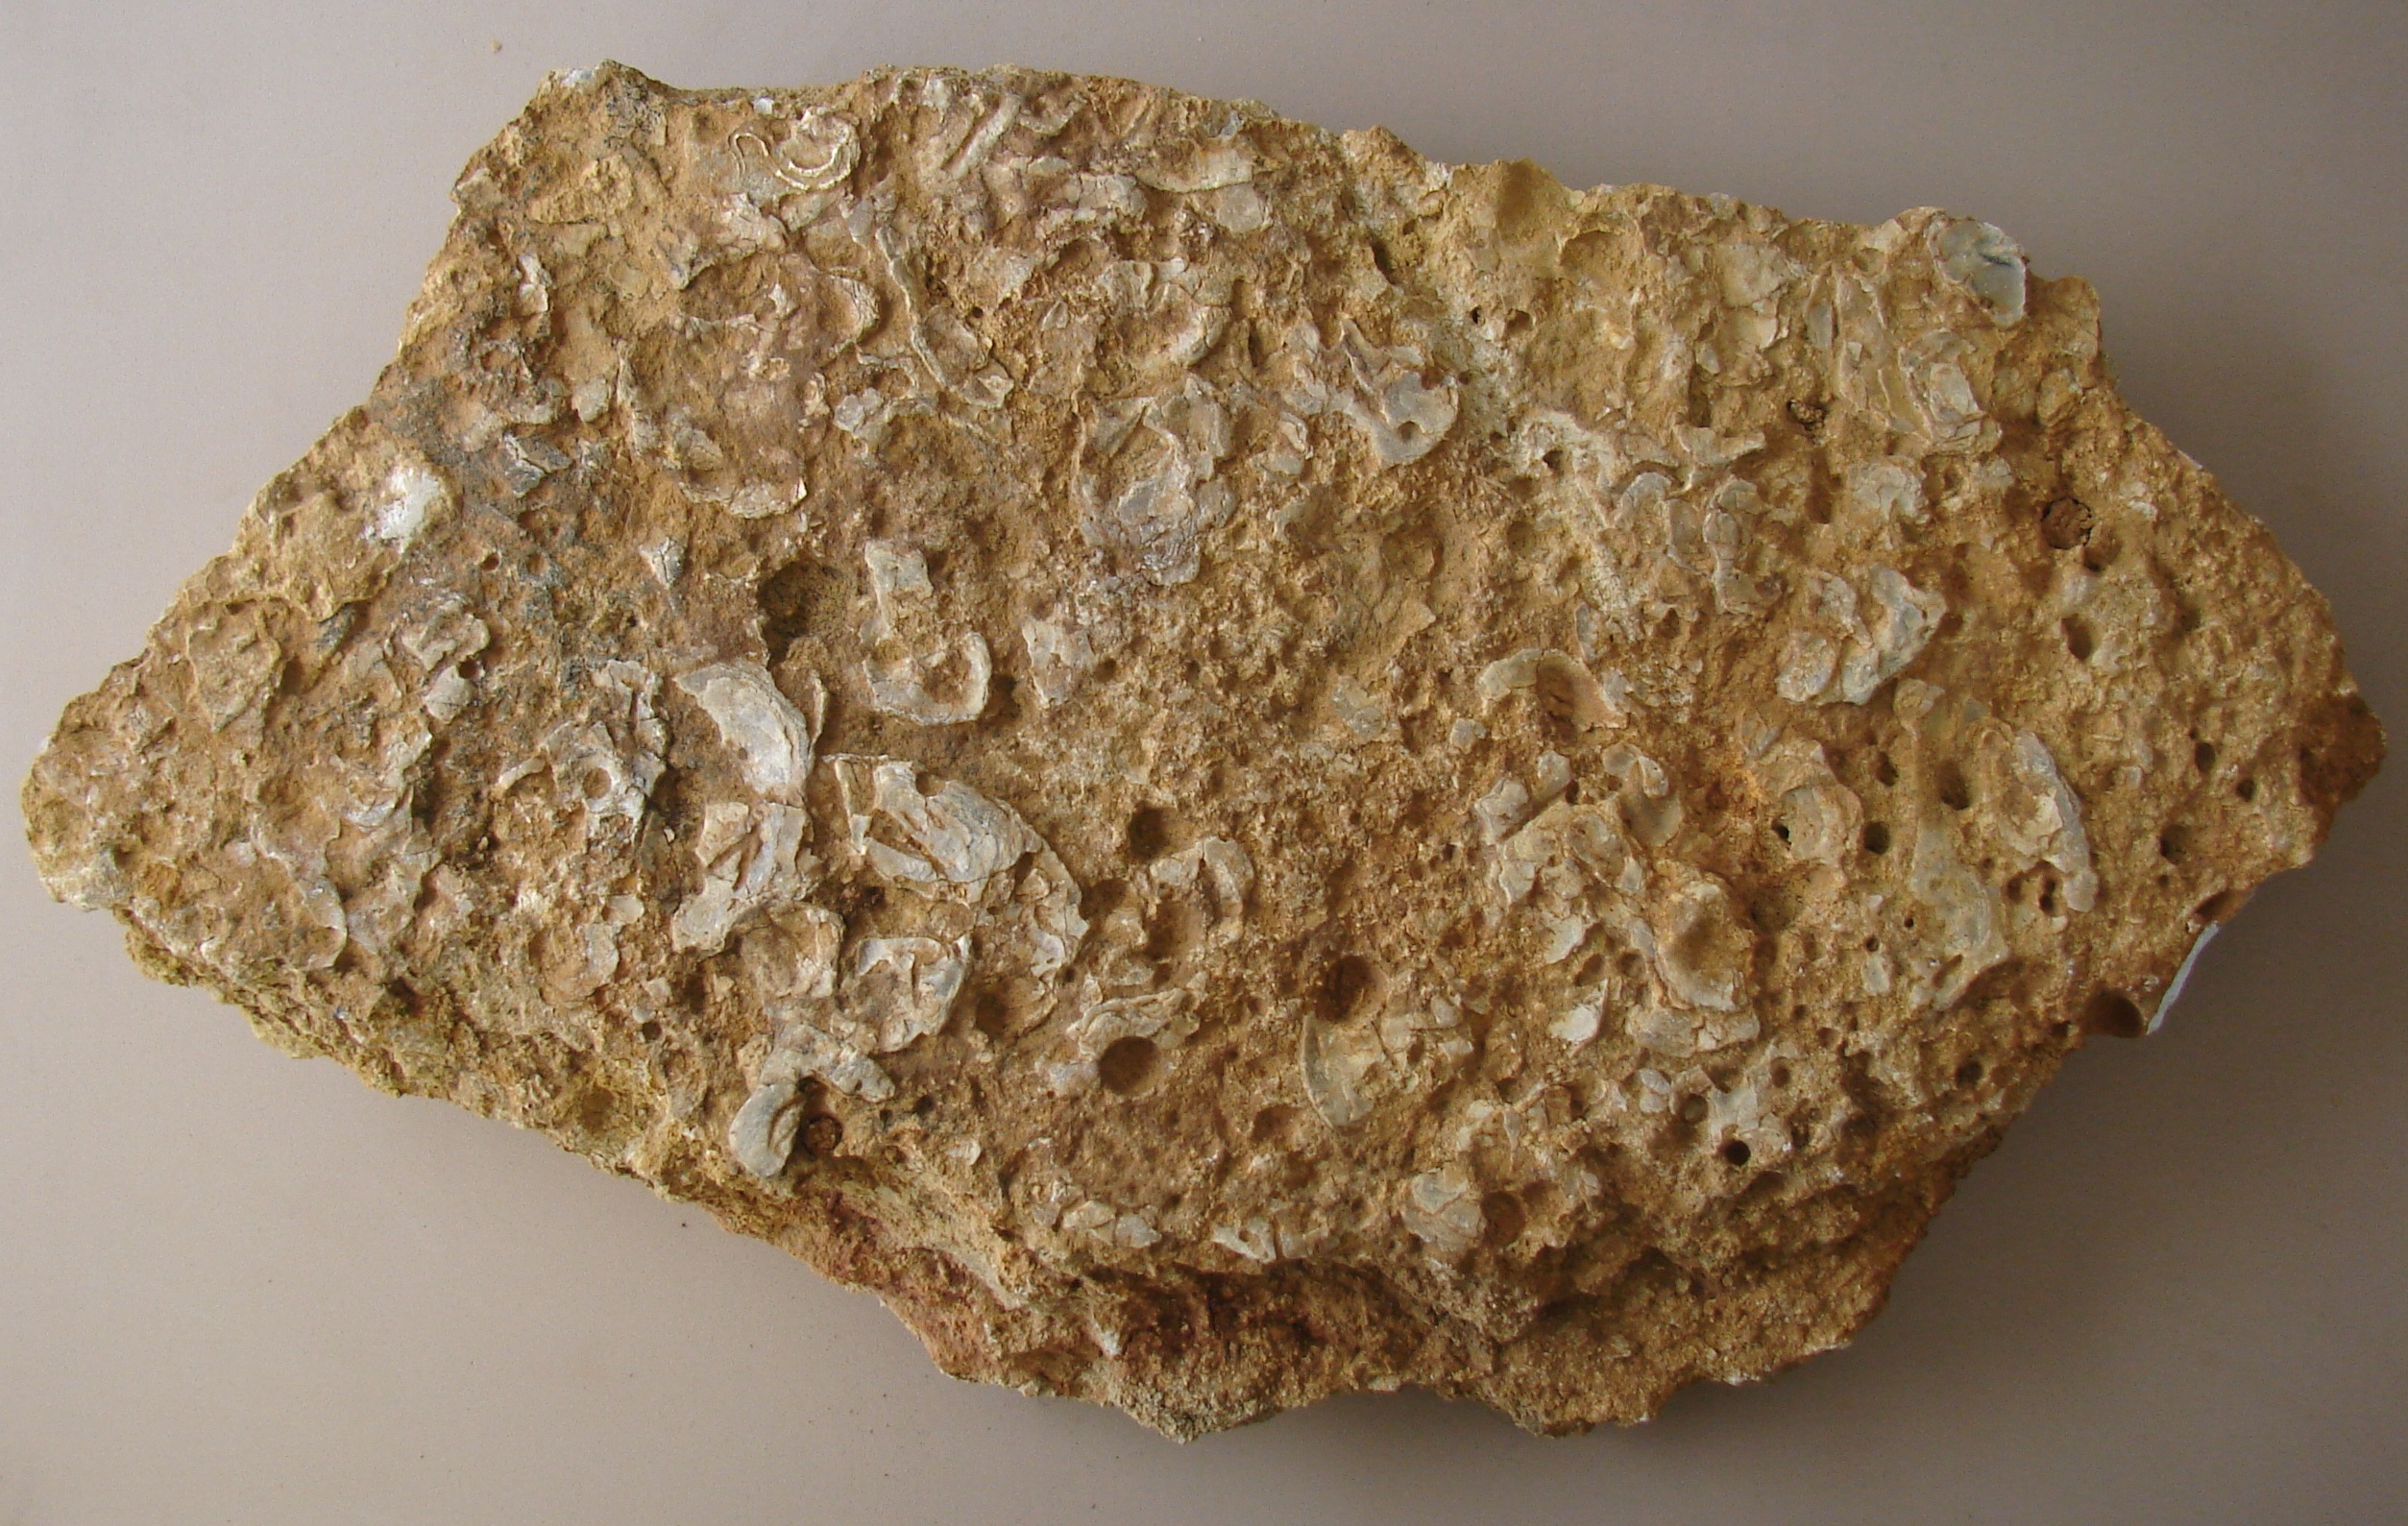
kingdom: Animalia
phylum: Mollusca
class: Bivalvia
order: Ostreida
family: Ostreidae
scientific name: Ostreidae
